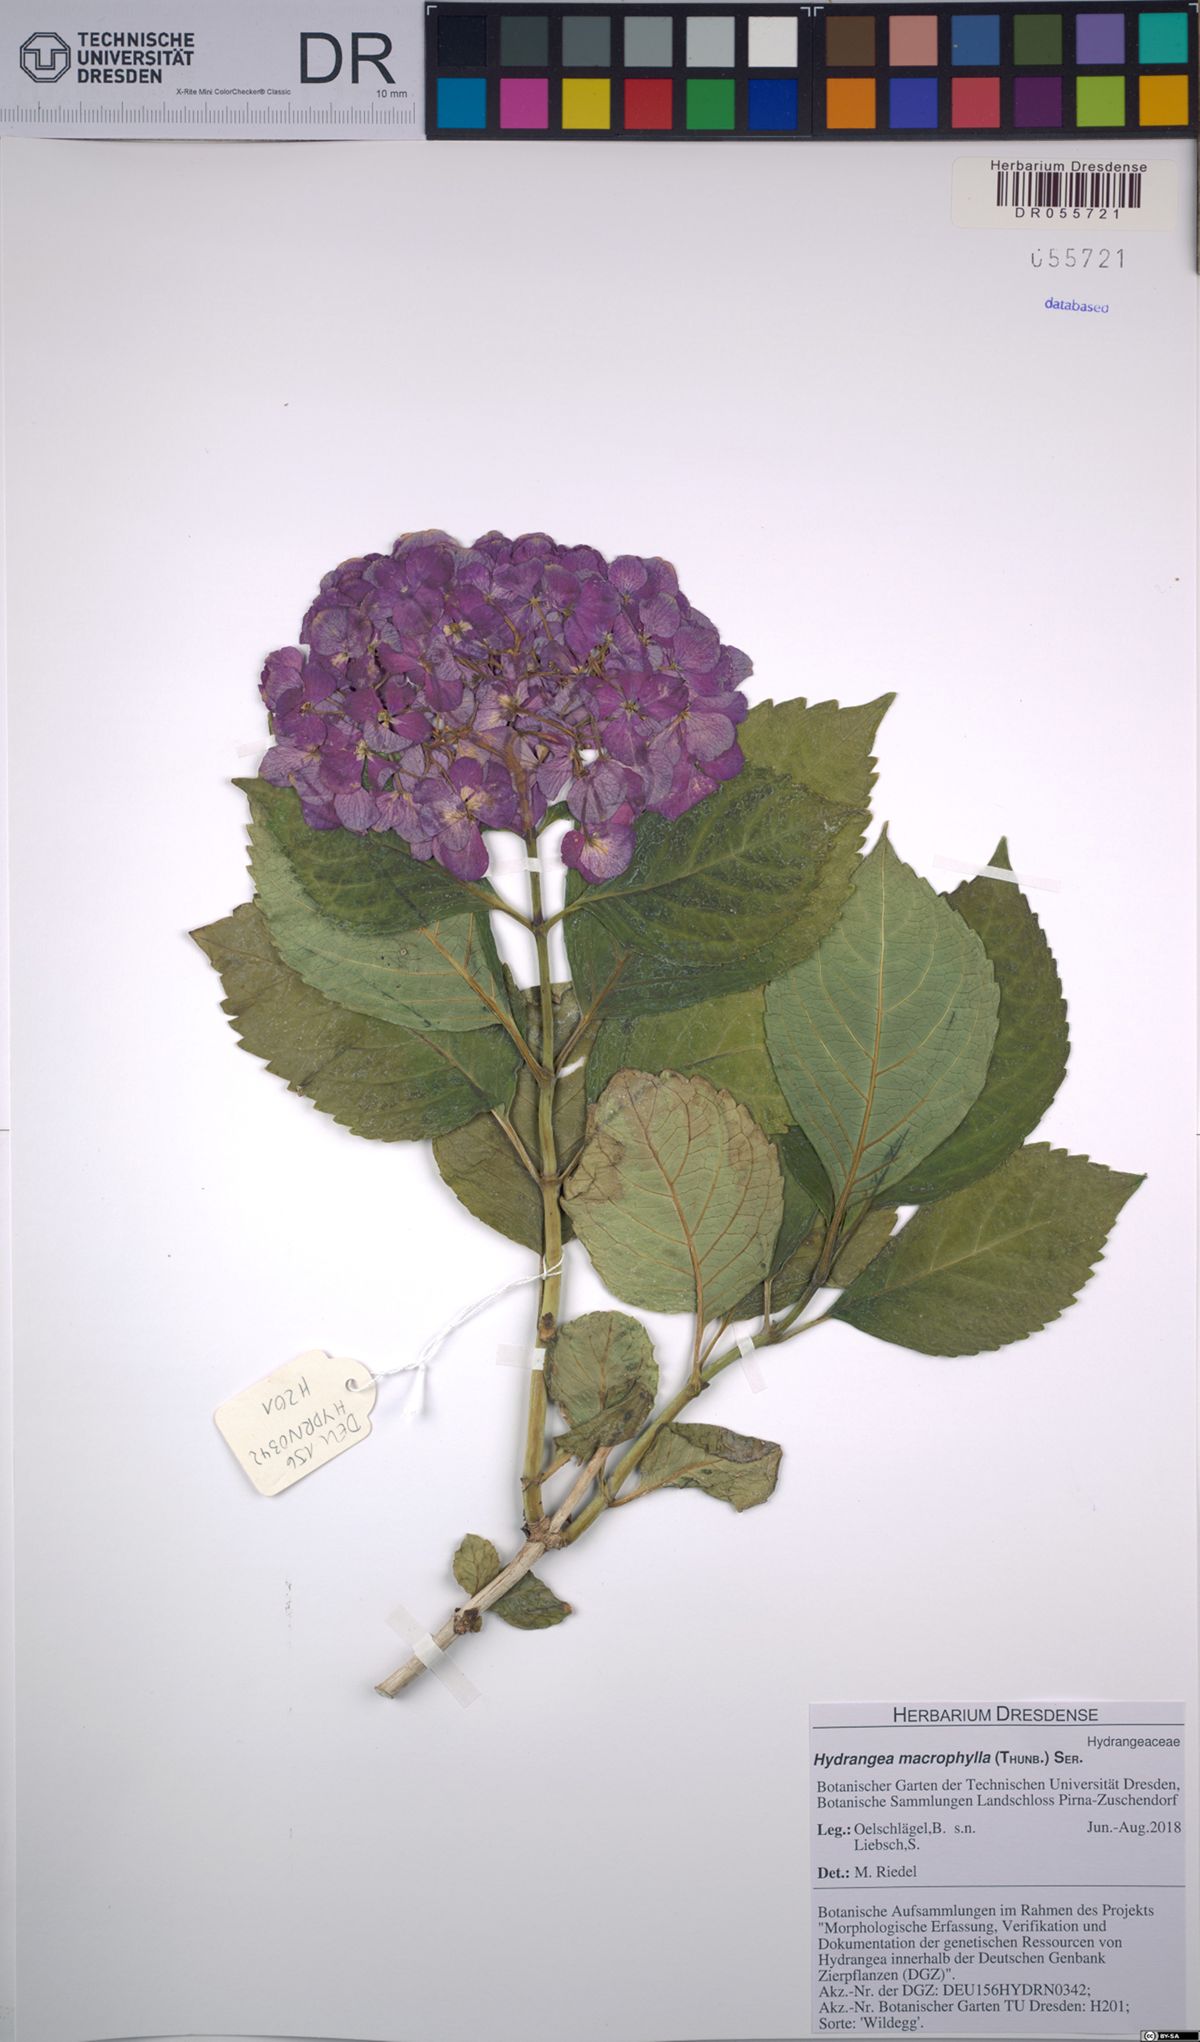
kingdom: Plantae
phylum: Tracheophyta
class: Magnoliopsida
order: Cornales
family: Hydrangeaceae
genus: Hydrangea
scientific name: Hydrangea macrophylla
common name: Hydrangea
